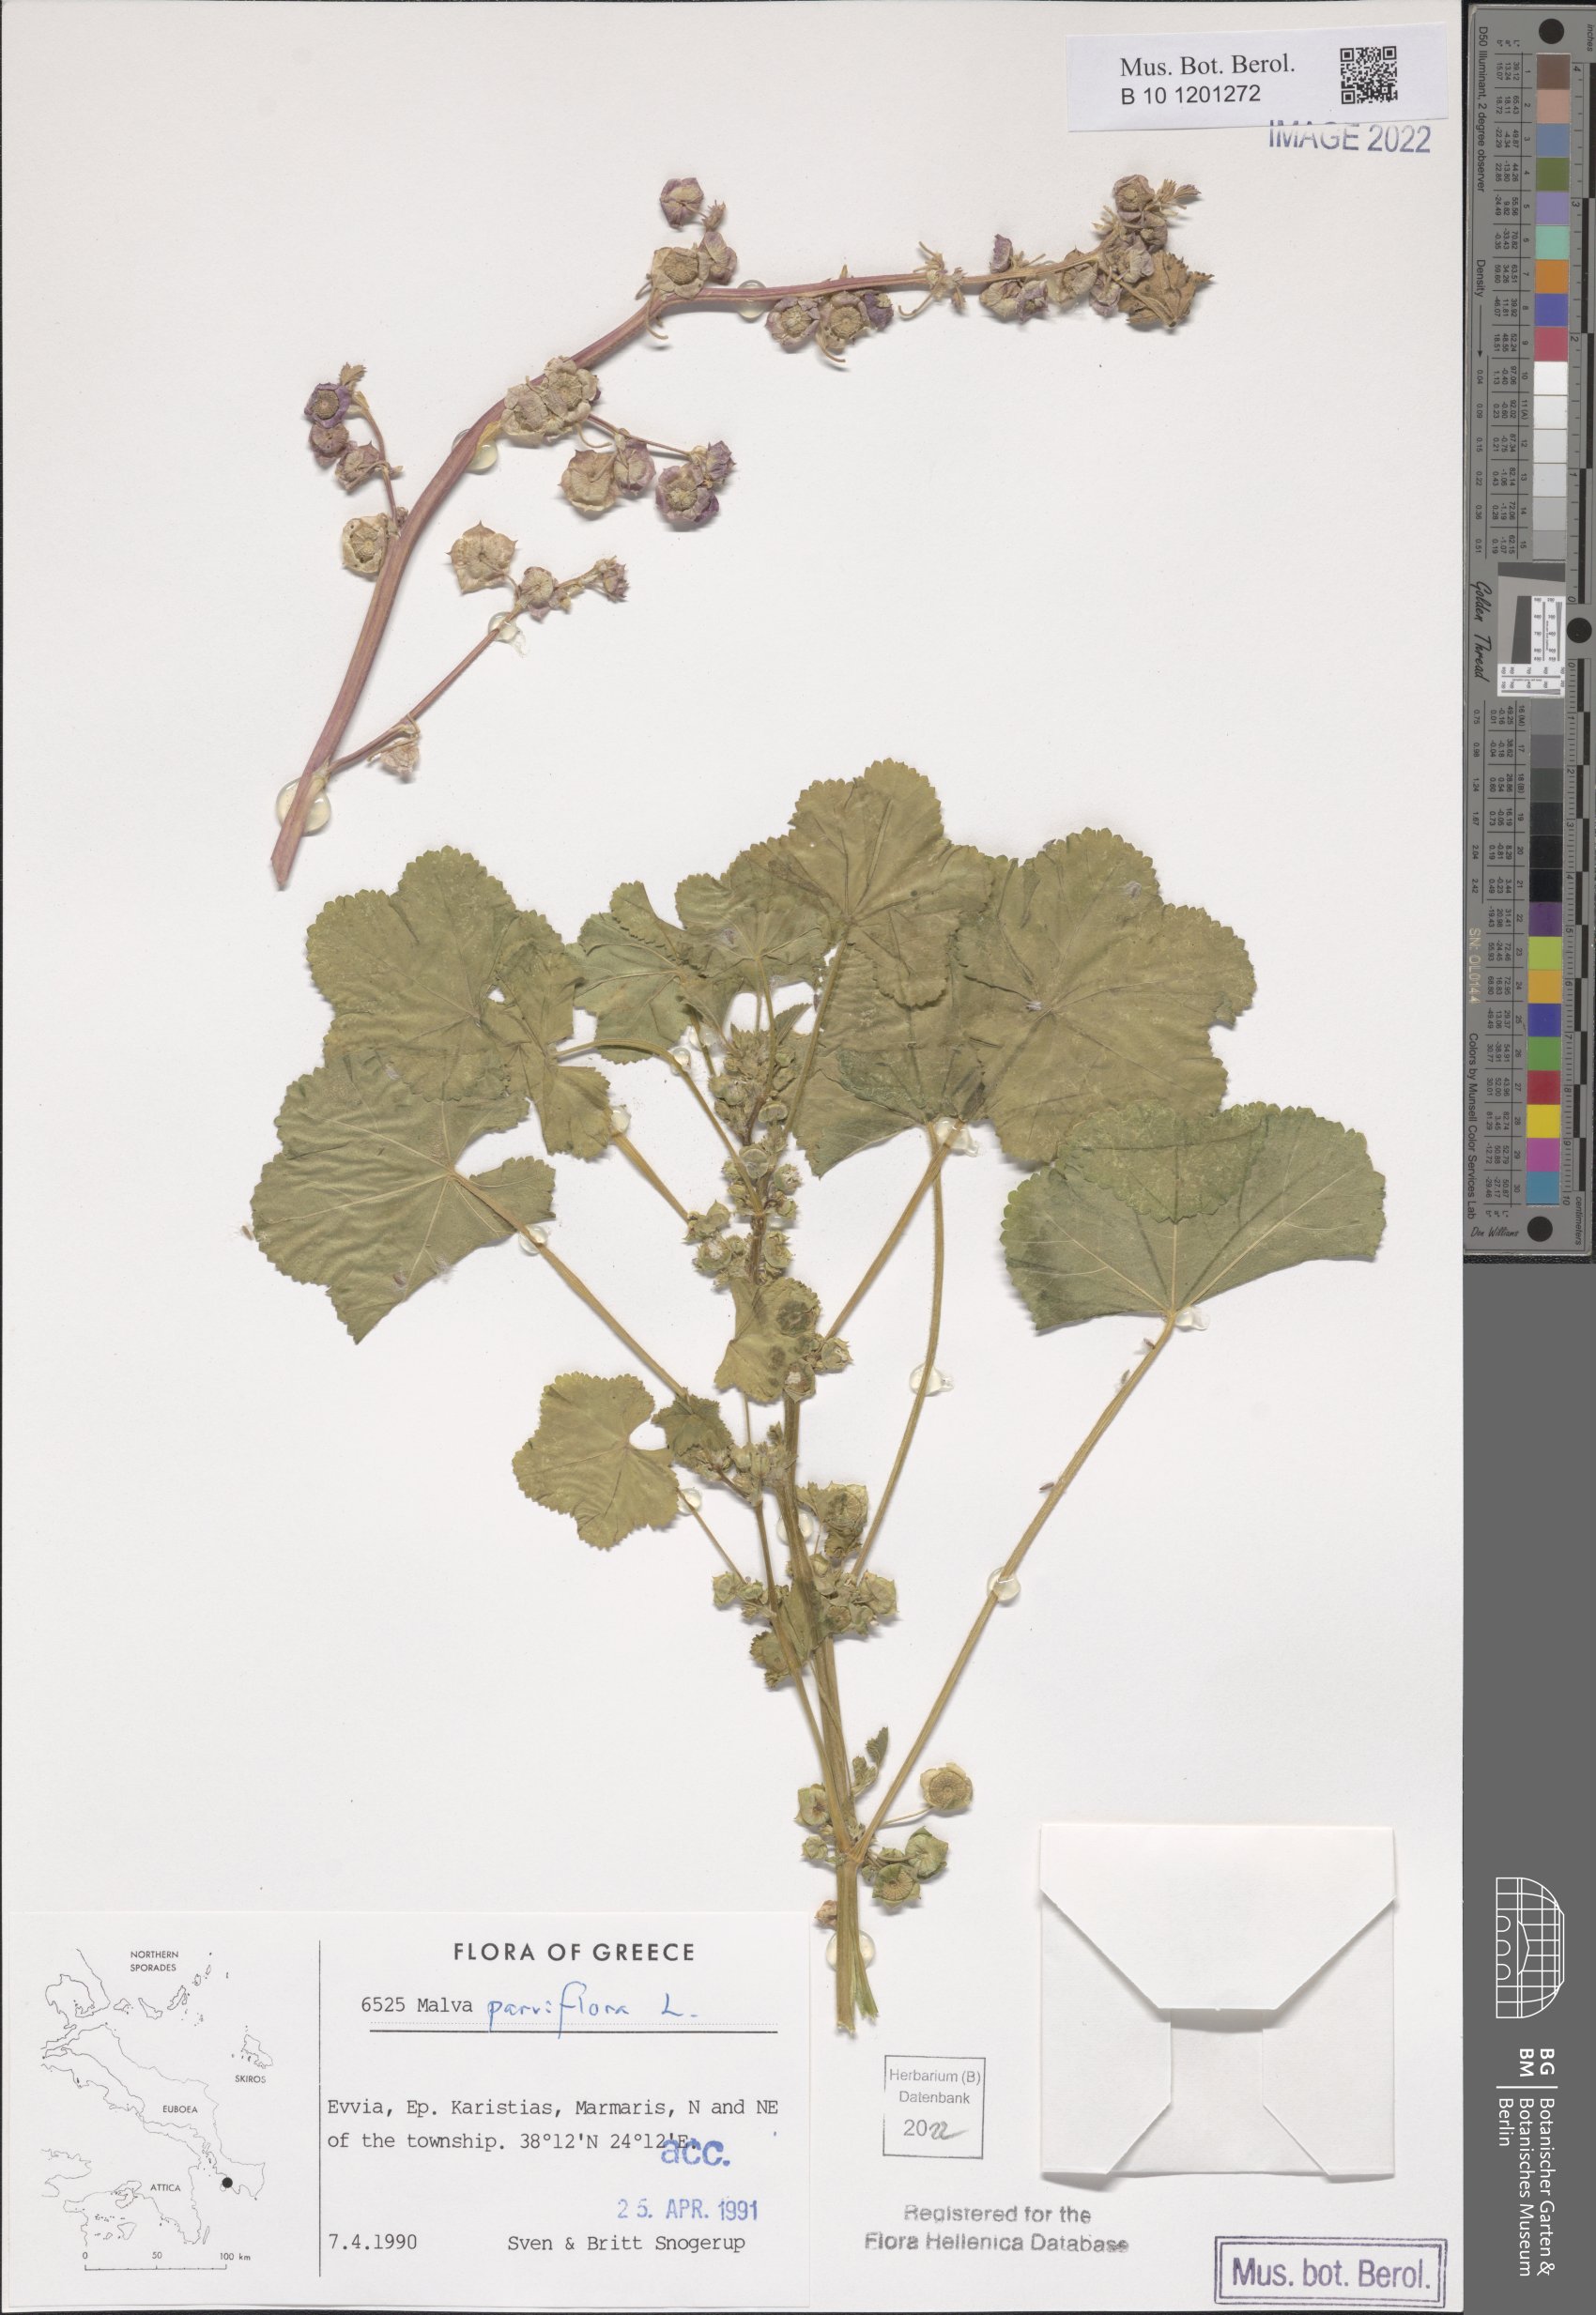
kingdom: Plantae
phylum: Tracheophyta
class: Magnoliopsida
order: Malvales
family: Malvaceae
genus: Malva
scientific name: Malva parviflora
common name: Least mallow
